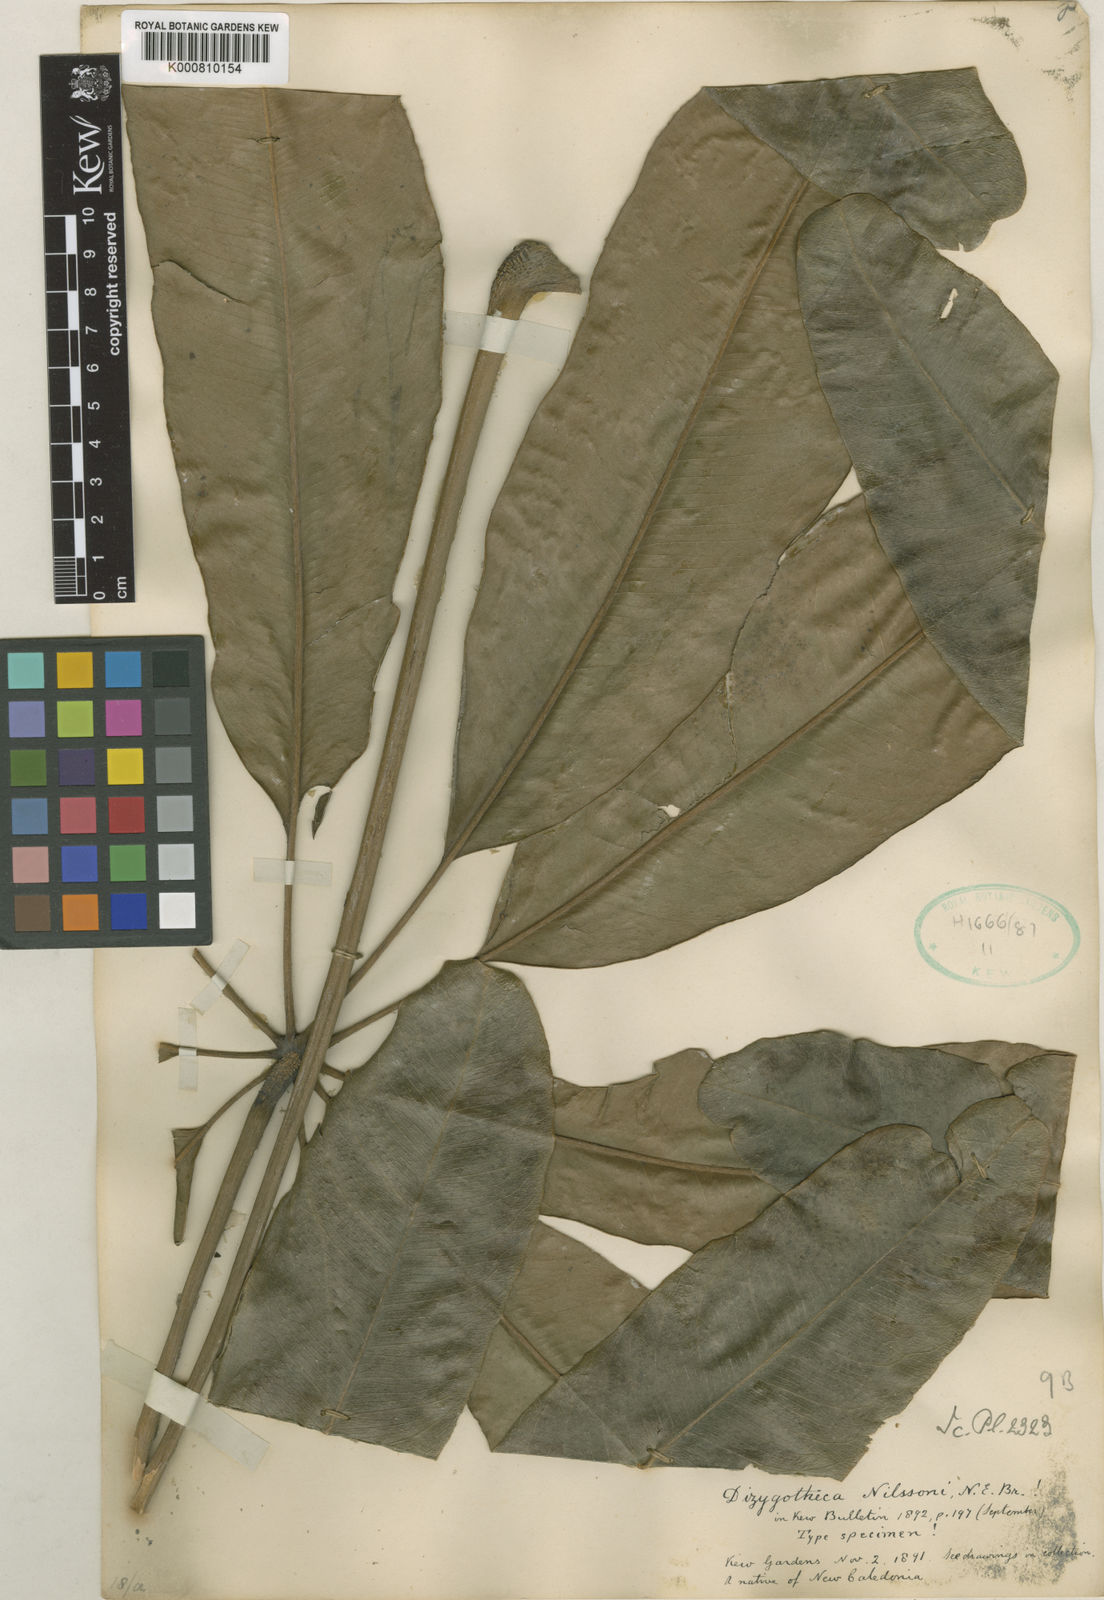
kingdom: Plantae
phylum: Tracheophyta
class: Magnoliopsida
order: Apiales
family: Araliaceae
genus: Plerandra
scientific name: Plerandra osyana
